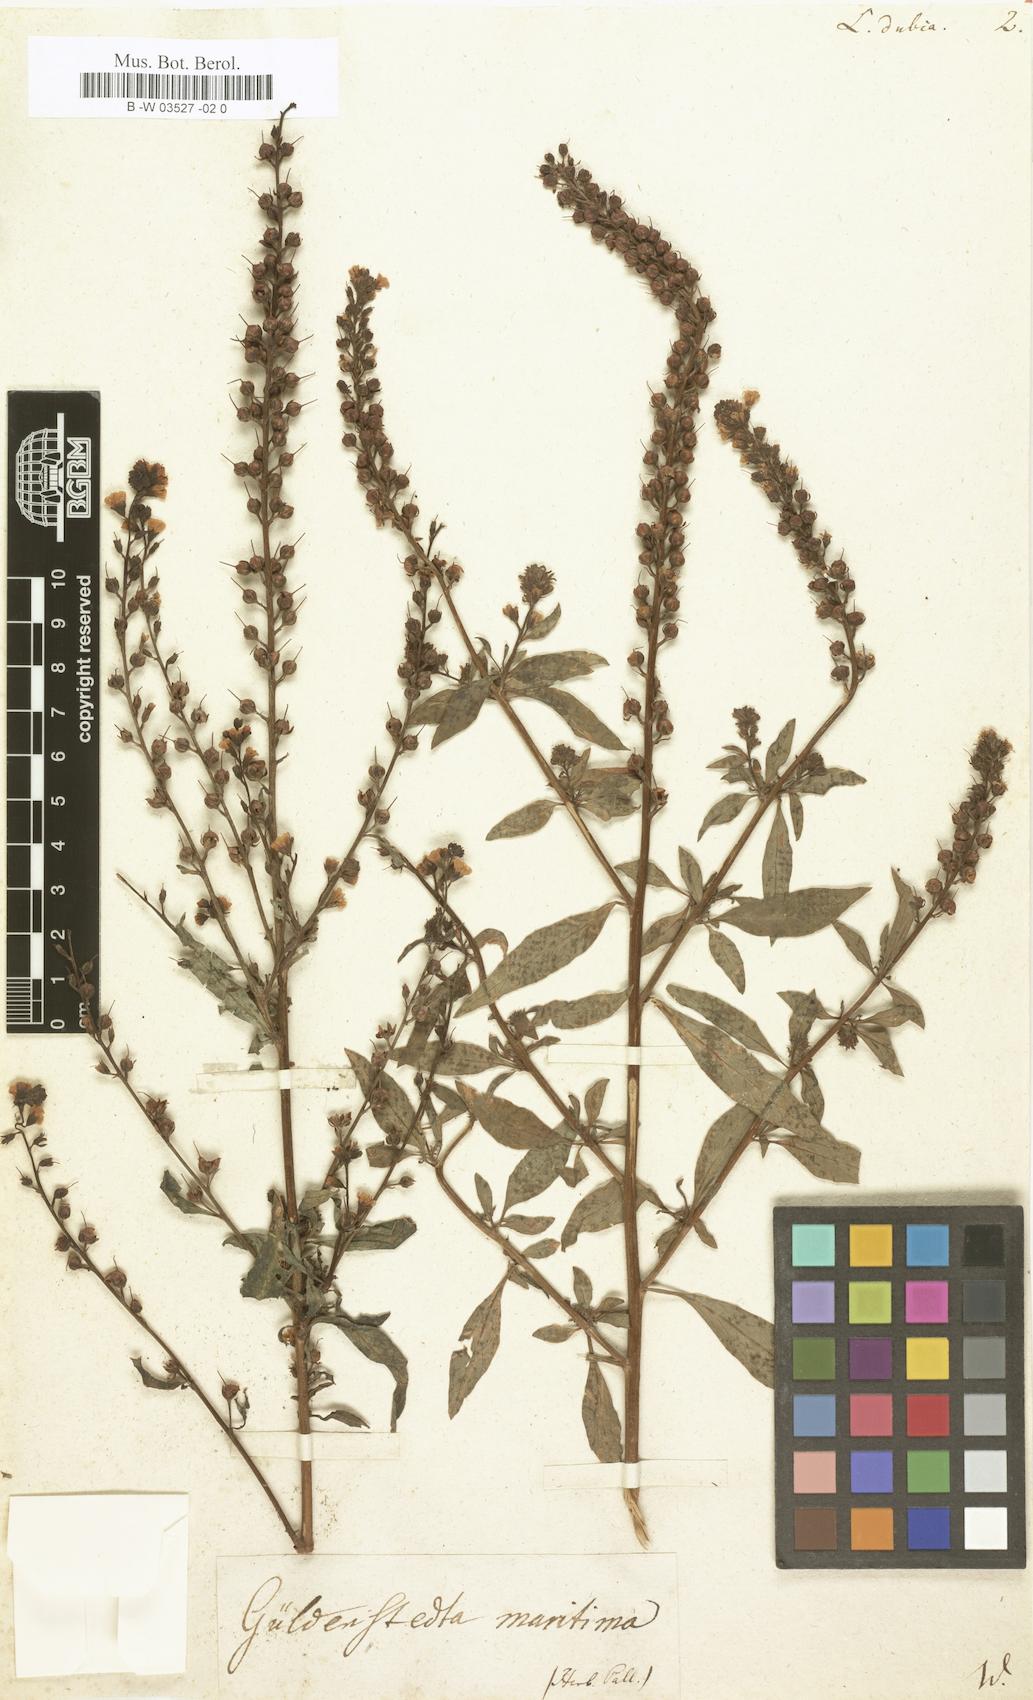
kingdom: Plantae
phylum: Tracheophyta
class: Magnoliopsida
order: Ericales
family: Primulaceae
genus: Lysimachia
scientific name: Lysimachia dubia
